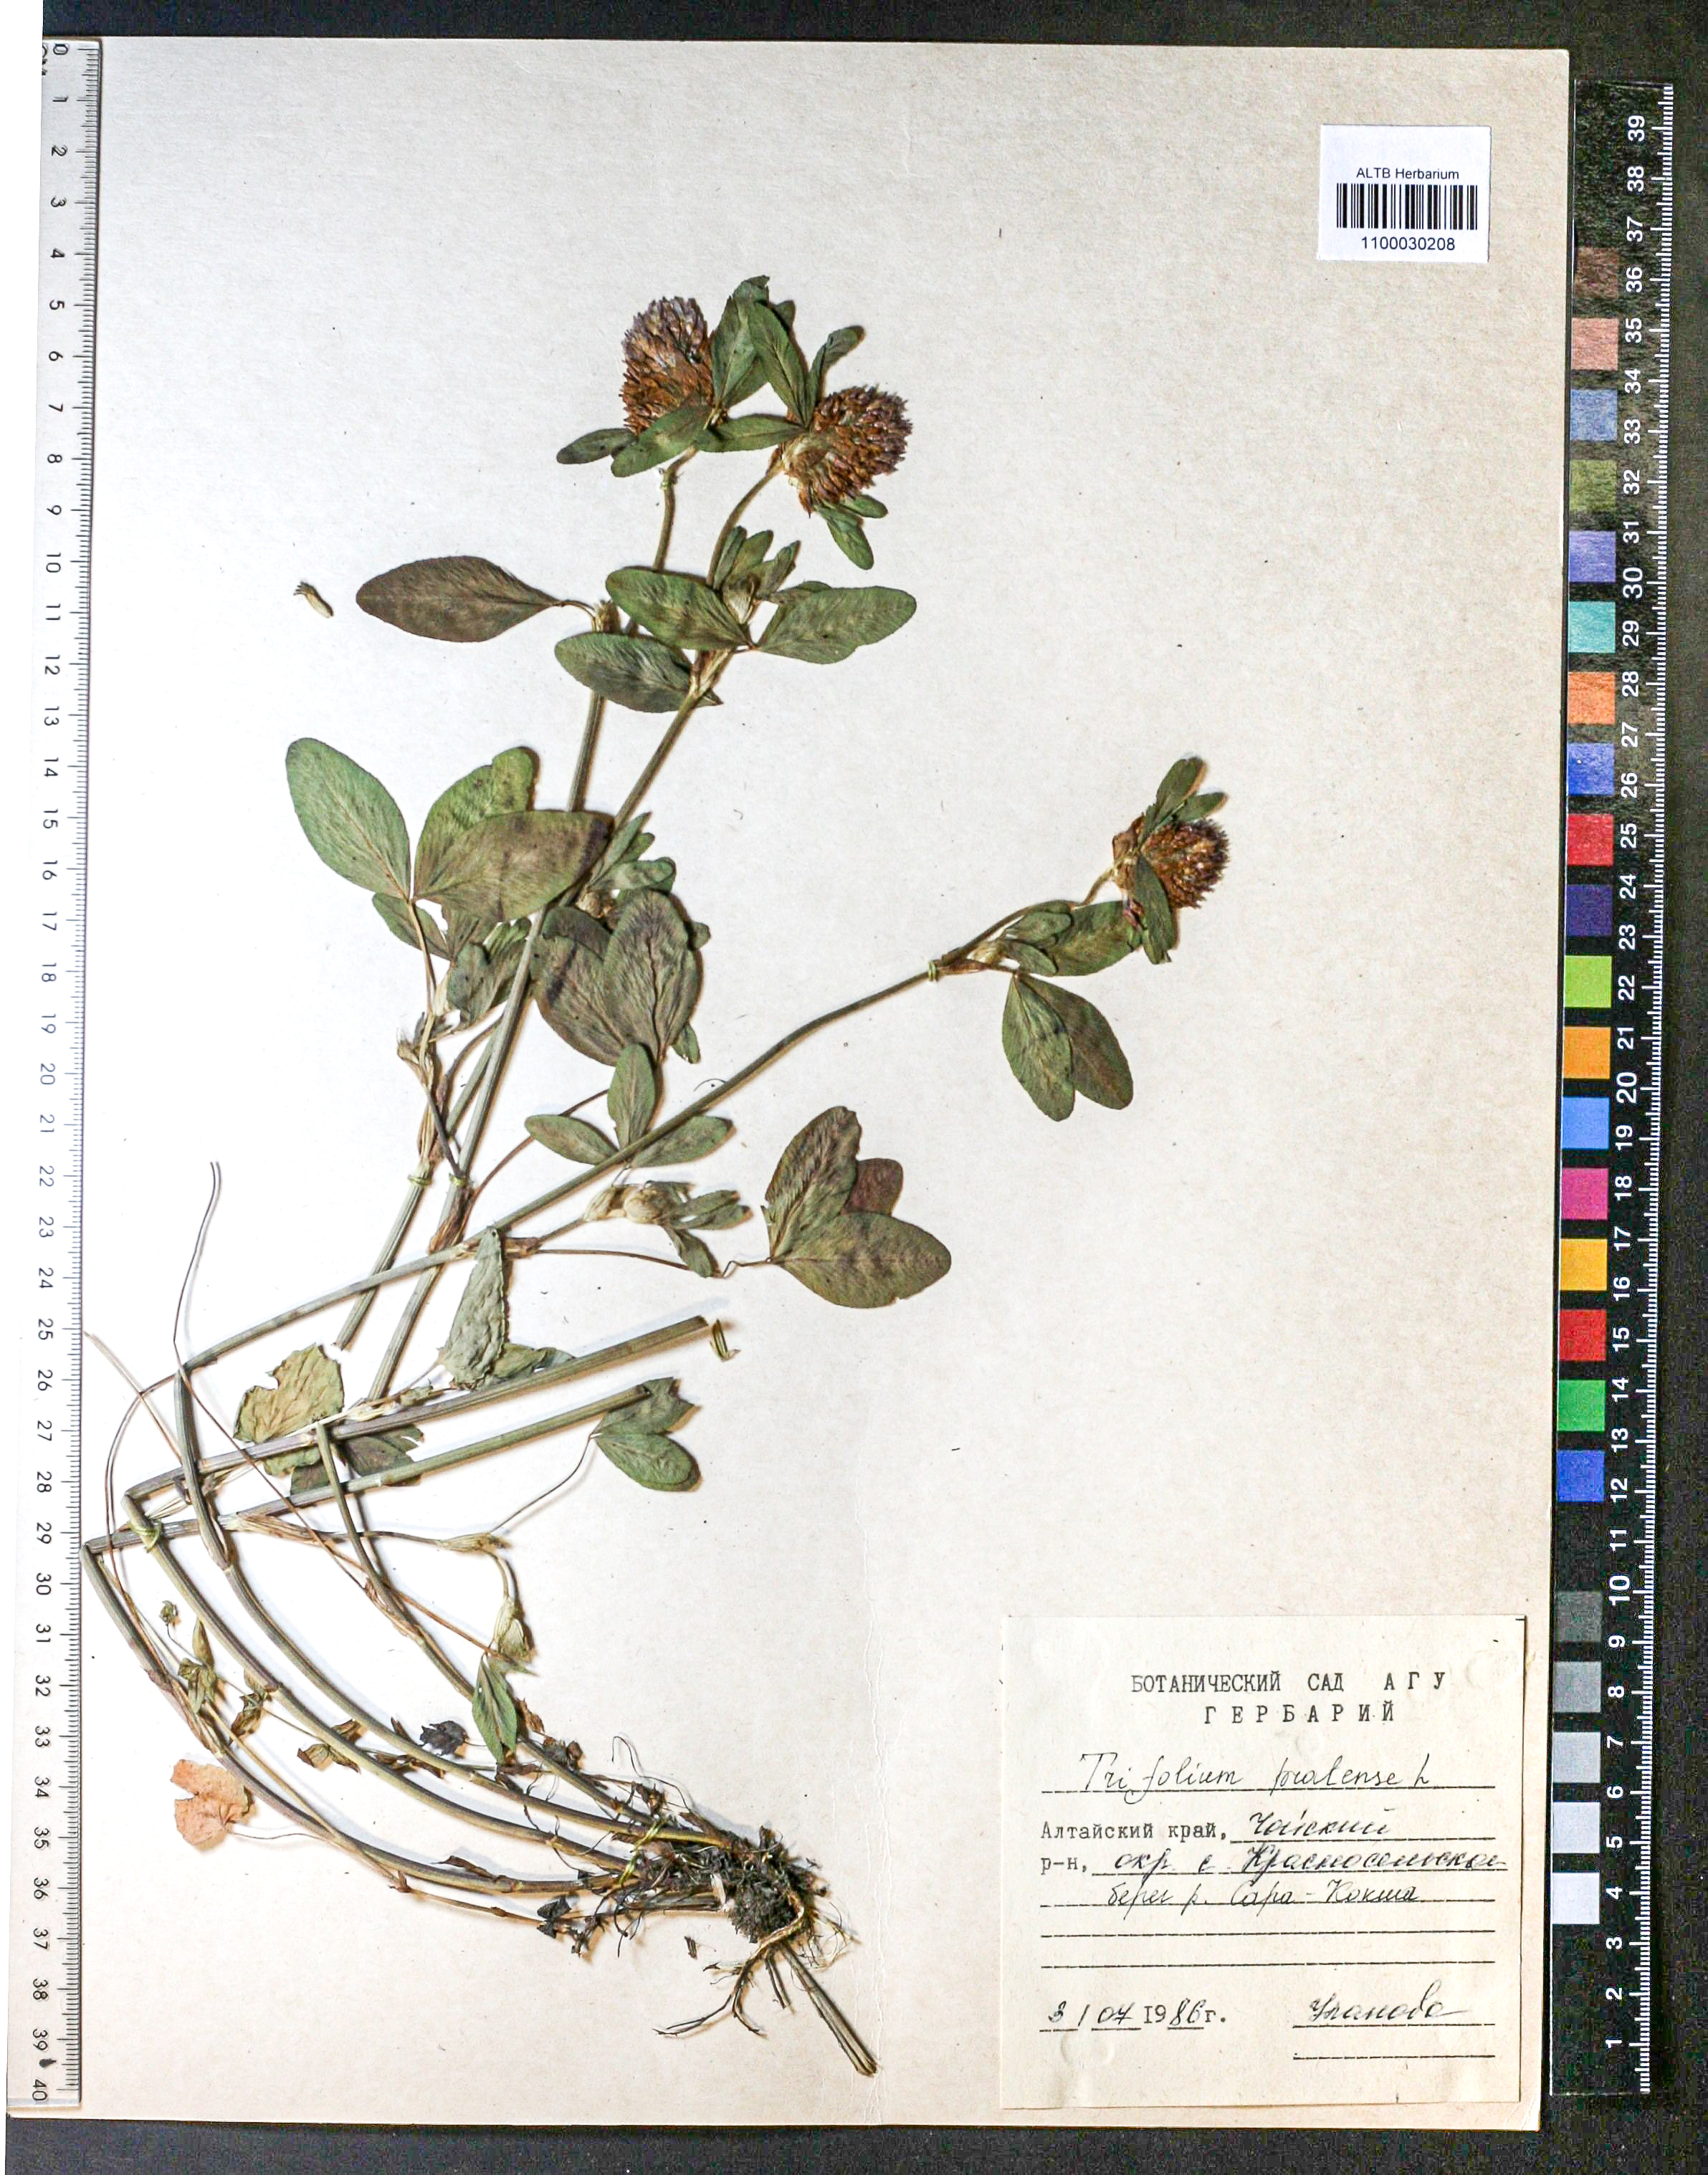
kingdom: Plantae
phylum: Tracheophyta
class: Magnoliopsida
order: Fabales
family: Fabaceae
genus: Trifolium
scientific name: Trifolium pratense
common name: Red clover
